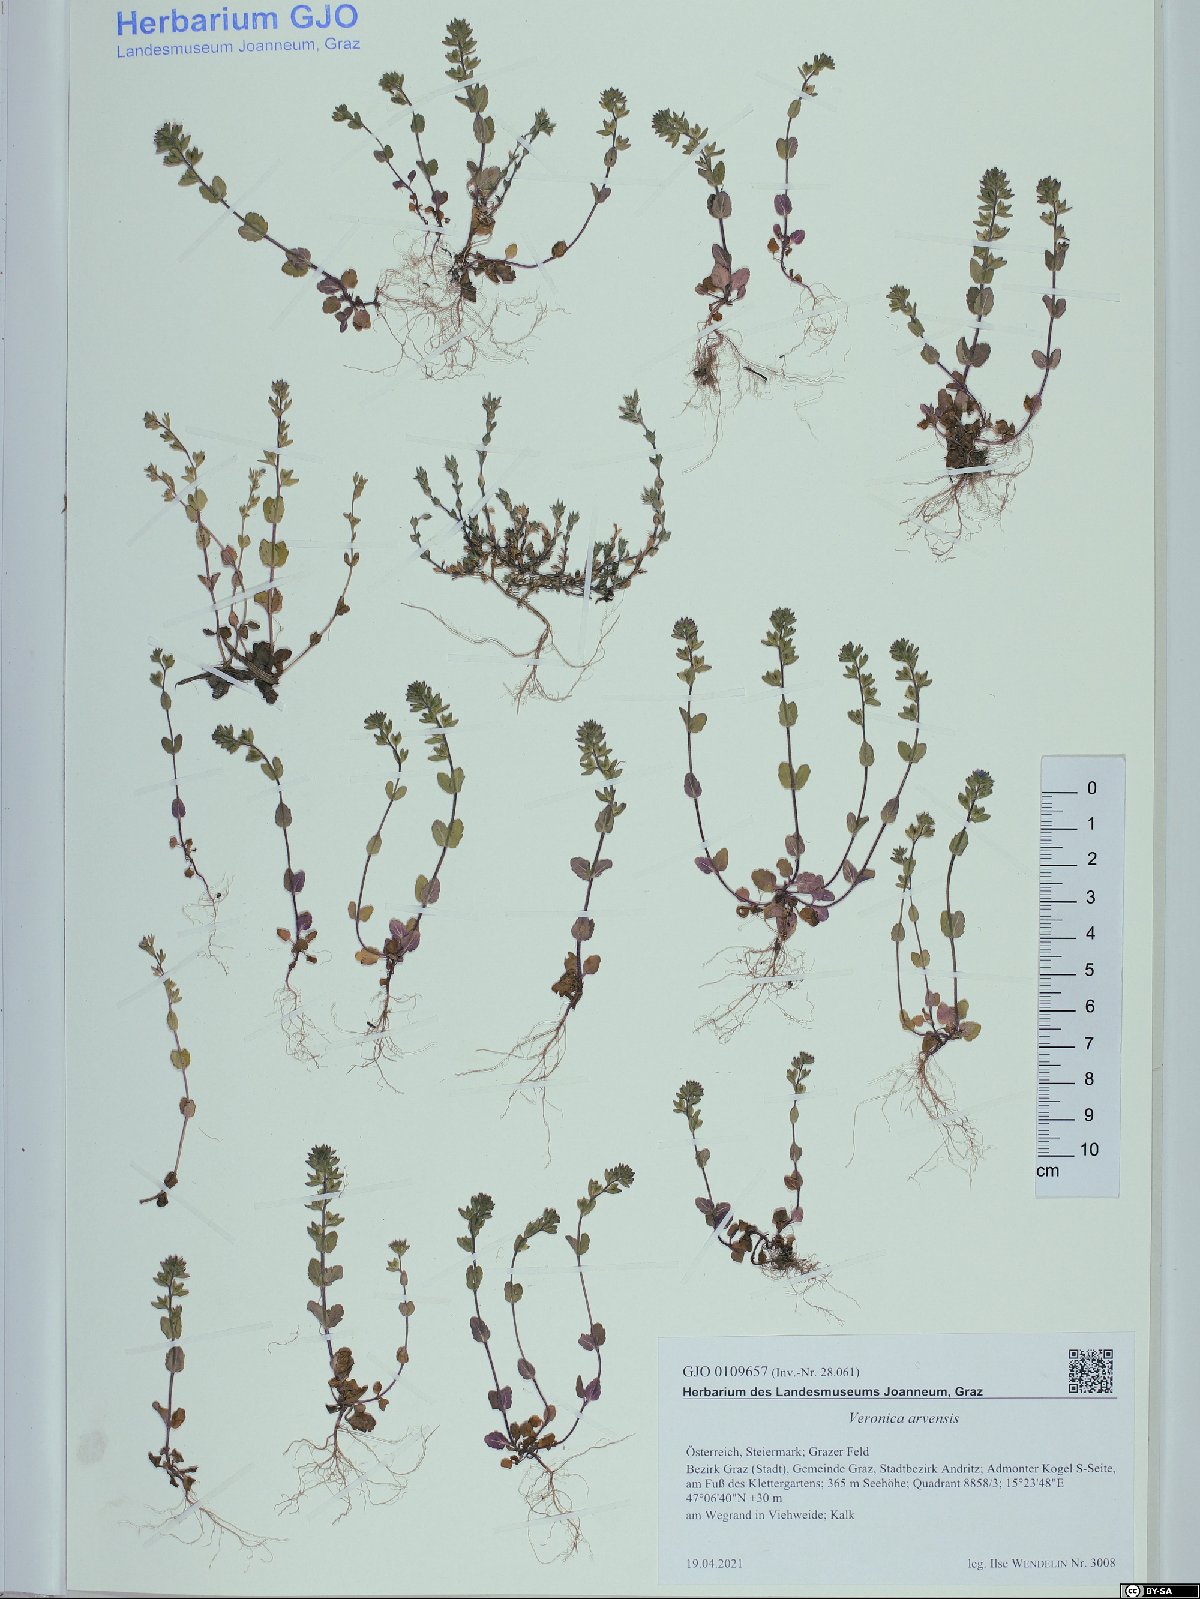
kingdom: Plantae
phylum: Tracheophyta
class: Magnoliopsida
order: Lamiales
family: Plantaginaceae
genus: Veronica
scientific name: Veronica arvensis
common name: Corn speedwell
